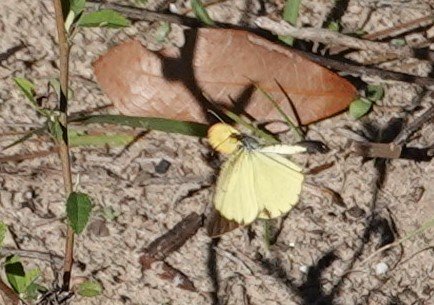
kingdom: Animalia
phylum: Arthropoda
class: Insecta
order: Lepidoptera
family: Pieridae
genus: Pyrisitia
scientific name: Pyrisitia lisa
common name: Little Yellow
